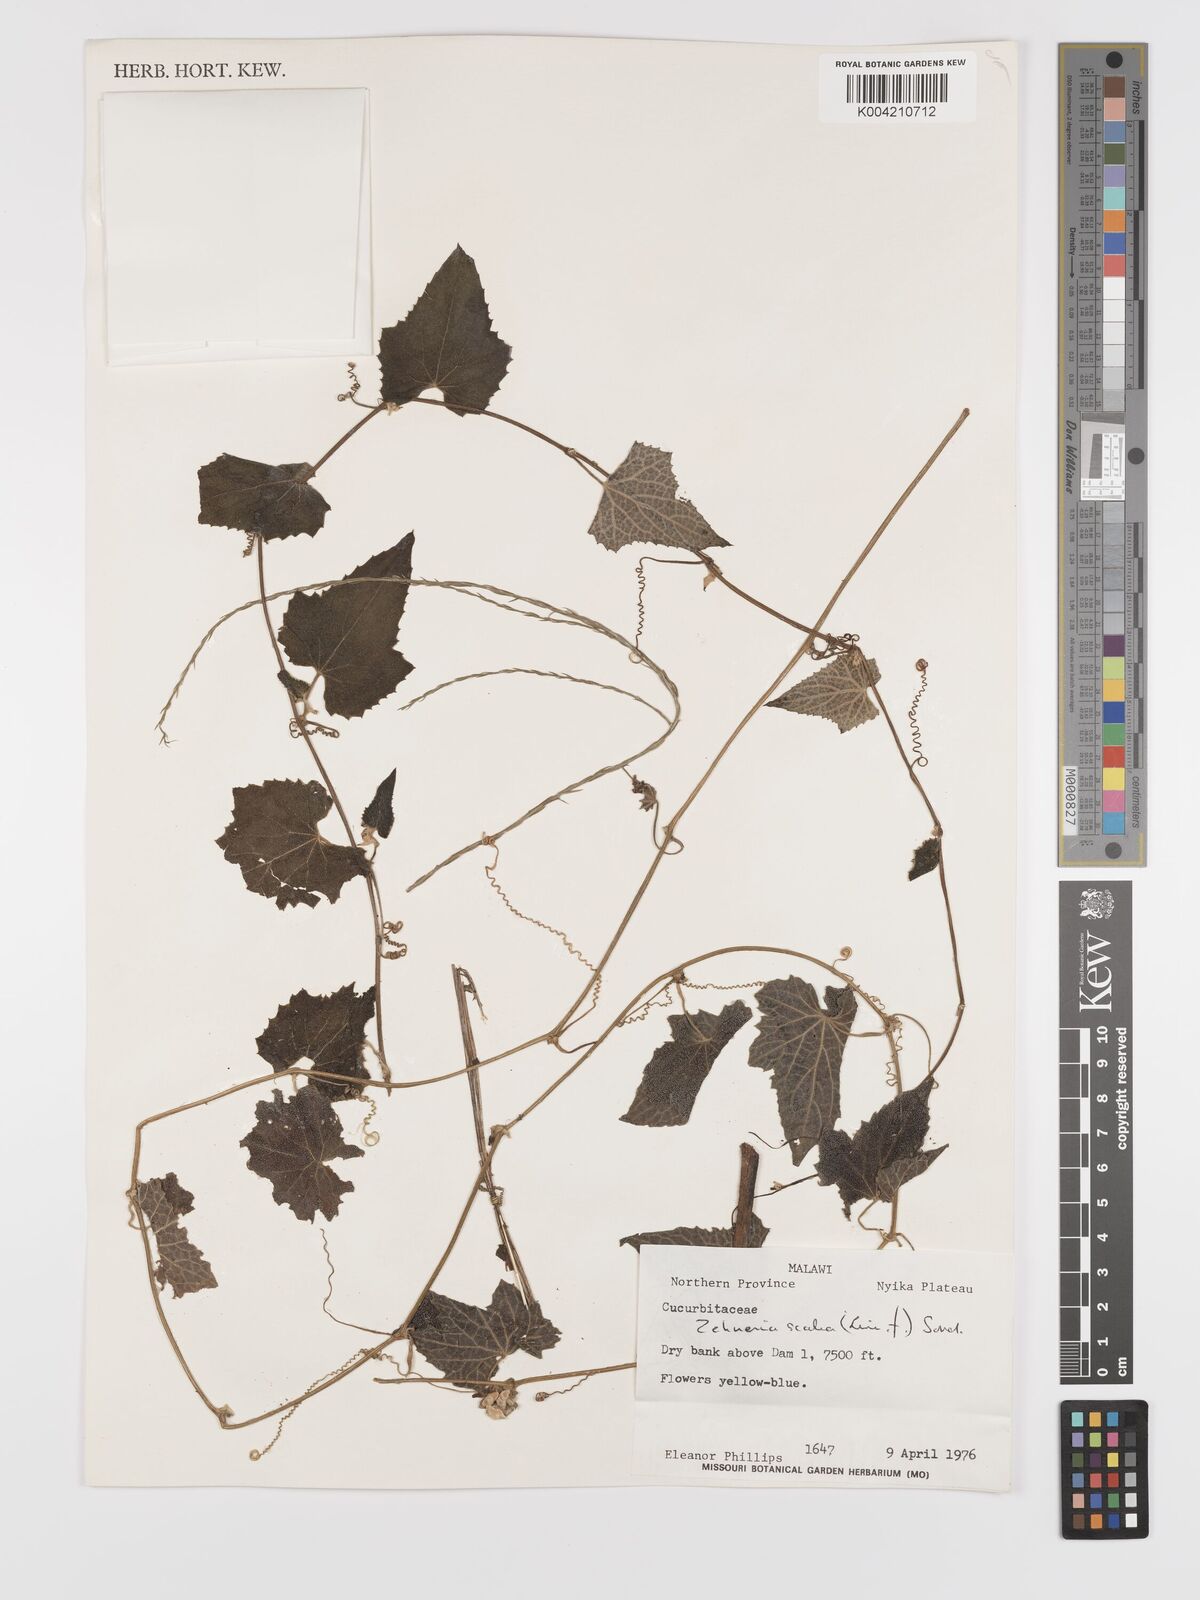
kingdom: Plantae
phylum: Tracheophyta
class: Magnoliopsida
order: Cucurbitales
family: Cucurbitaceae
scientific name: Cucurbitaceae
